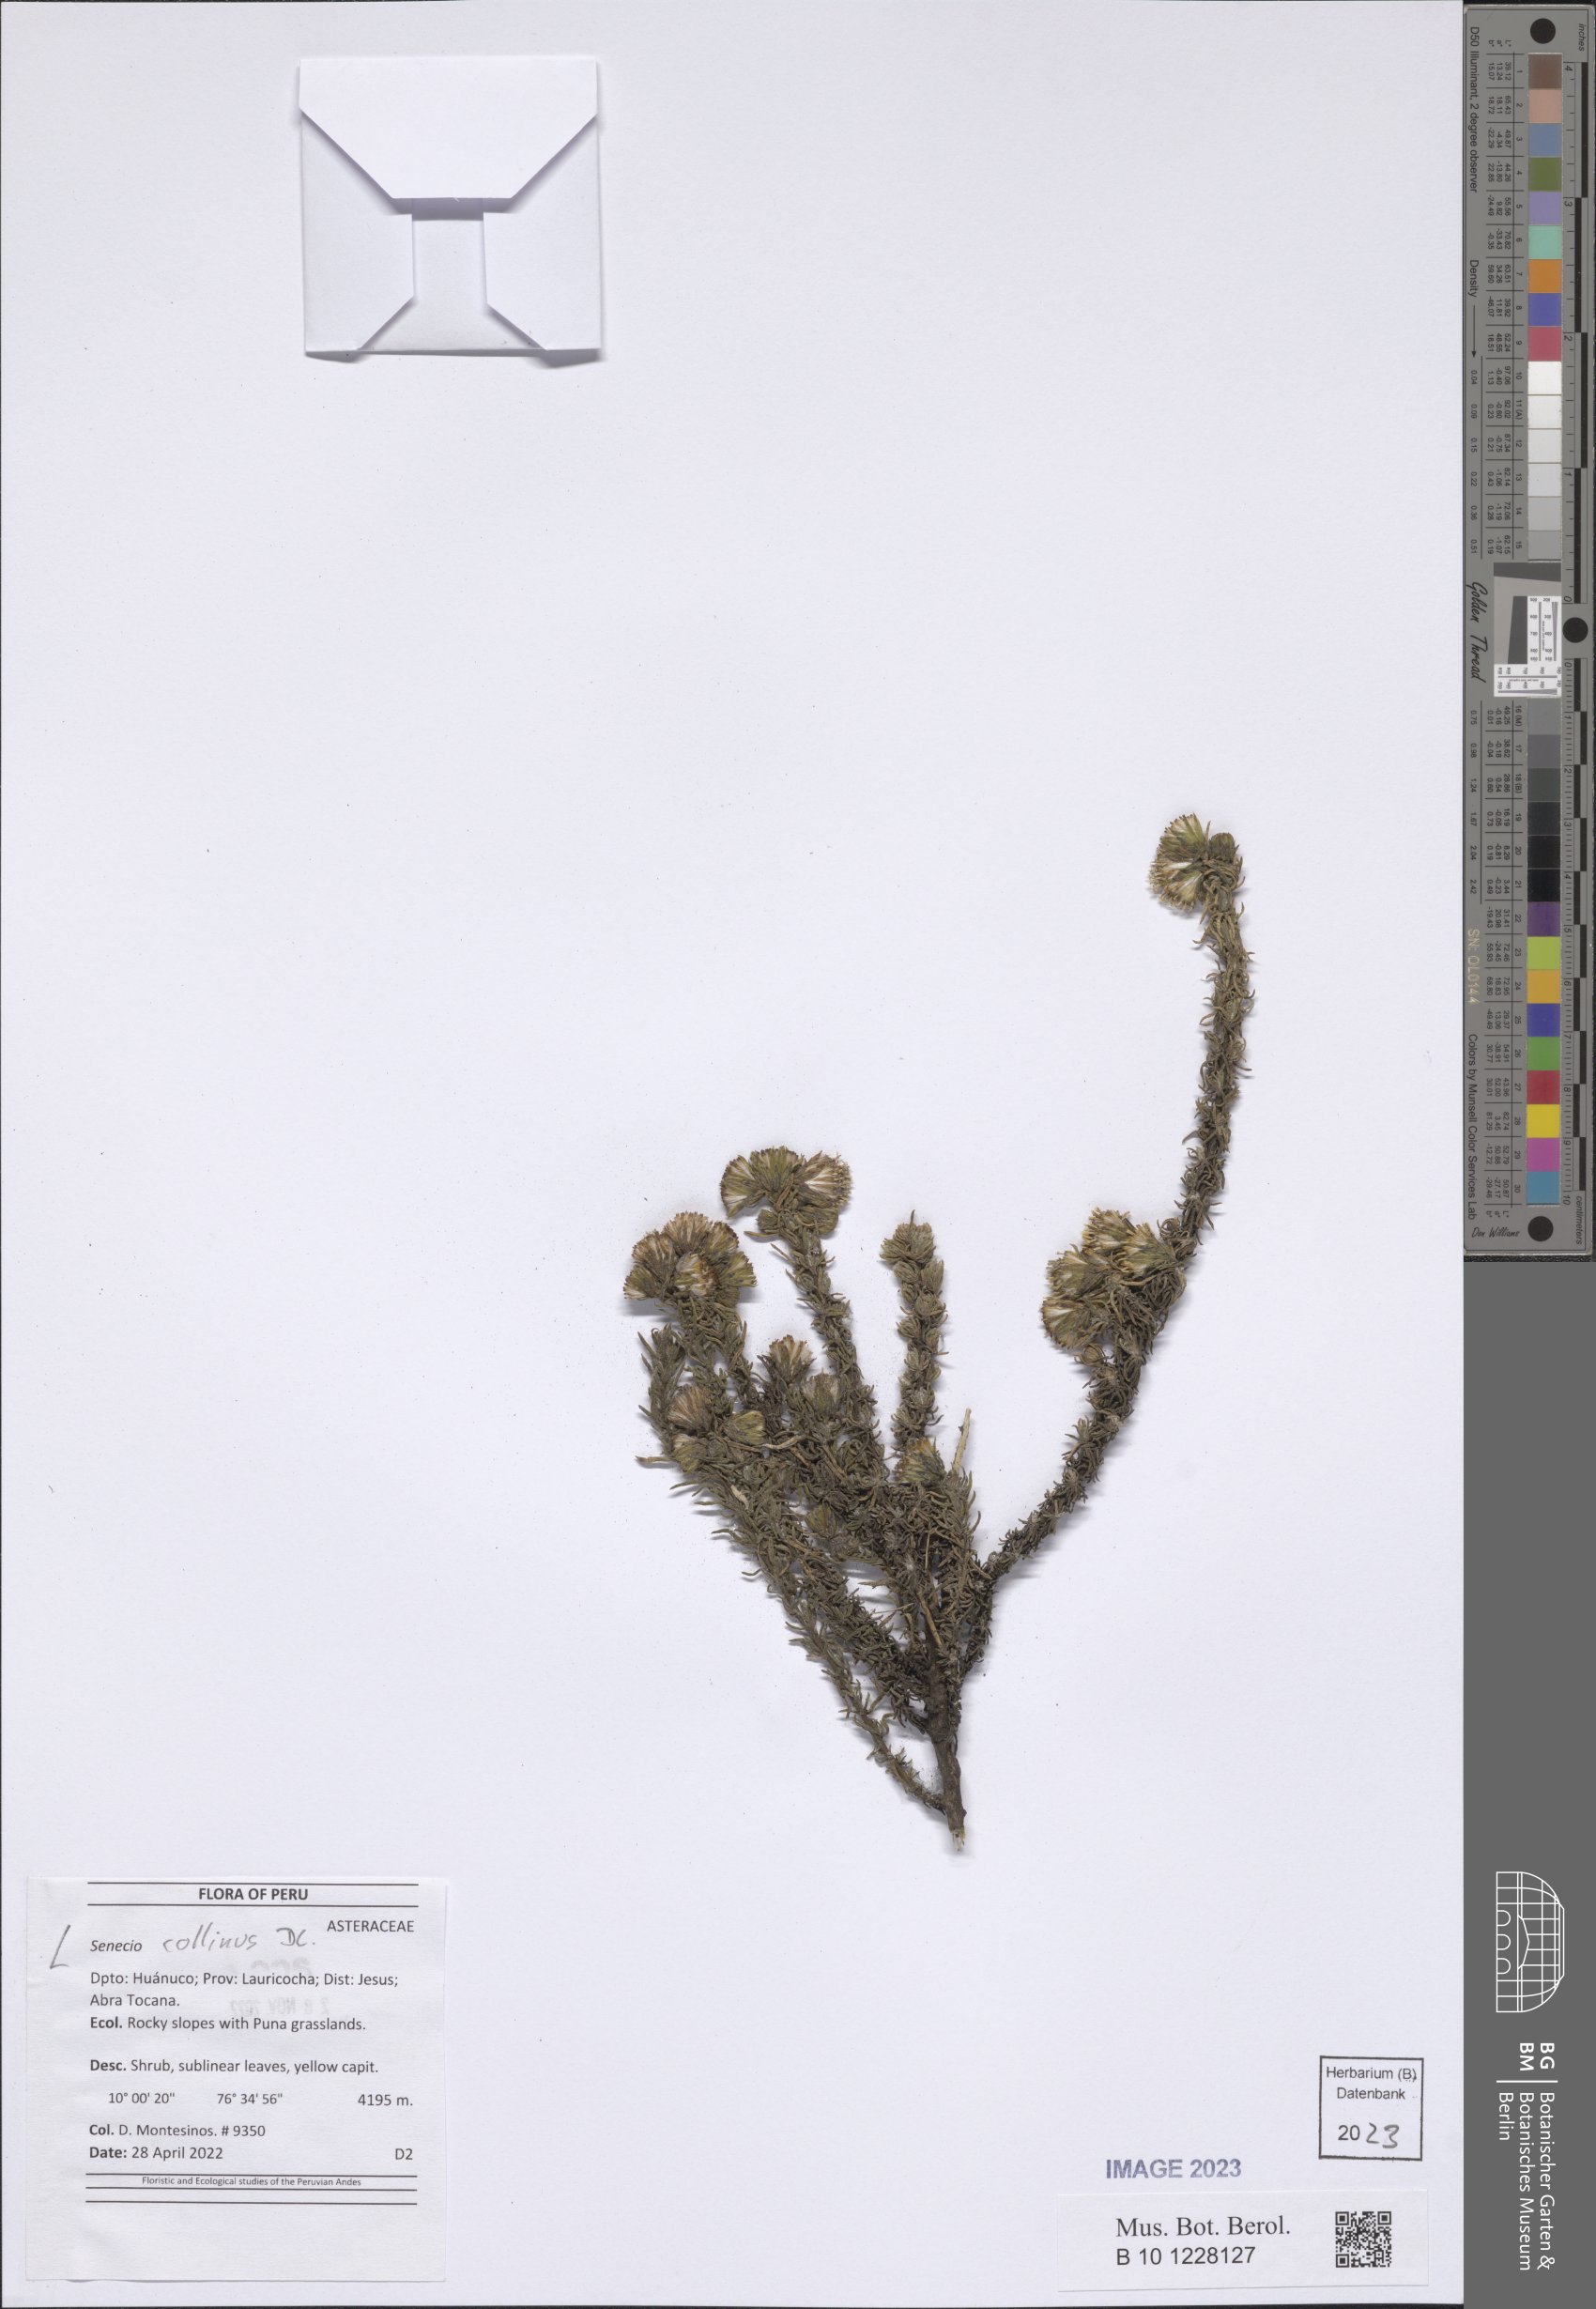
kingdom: Plantae
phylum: Tracheophyta
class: Magnoliopsida
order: Asterales
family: Asteraceae
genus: Senecio
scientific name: Senecio collinus
